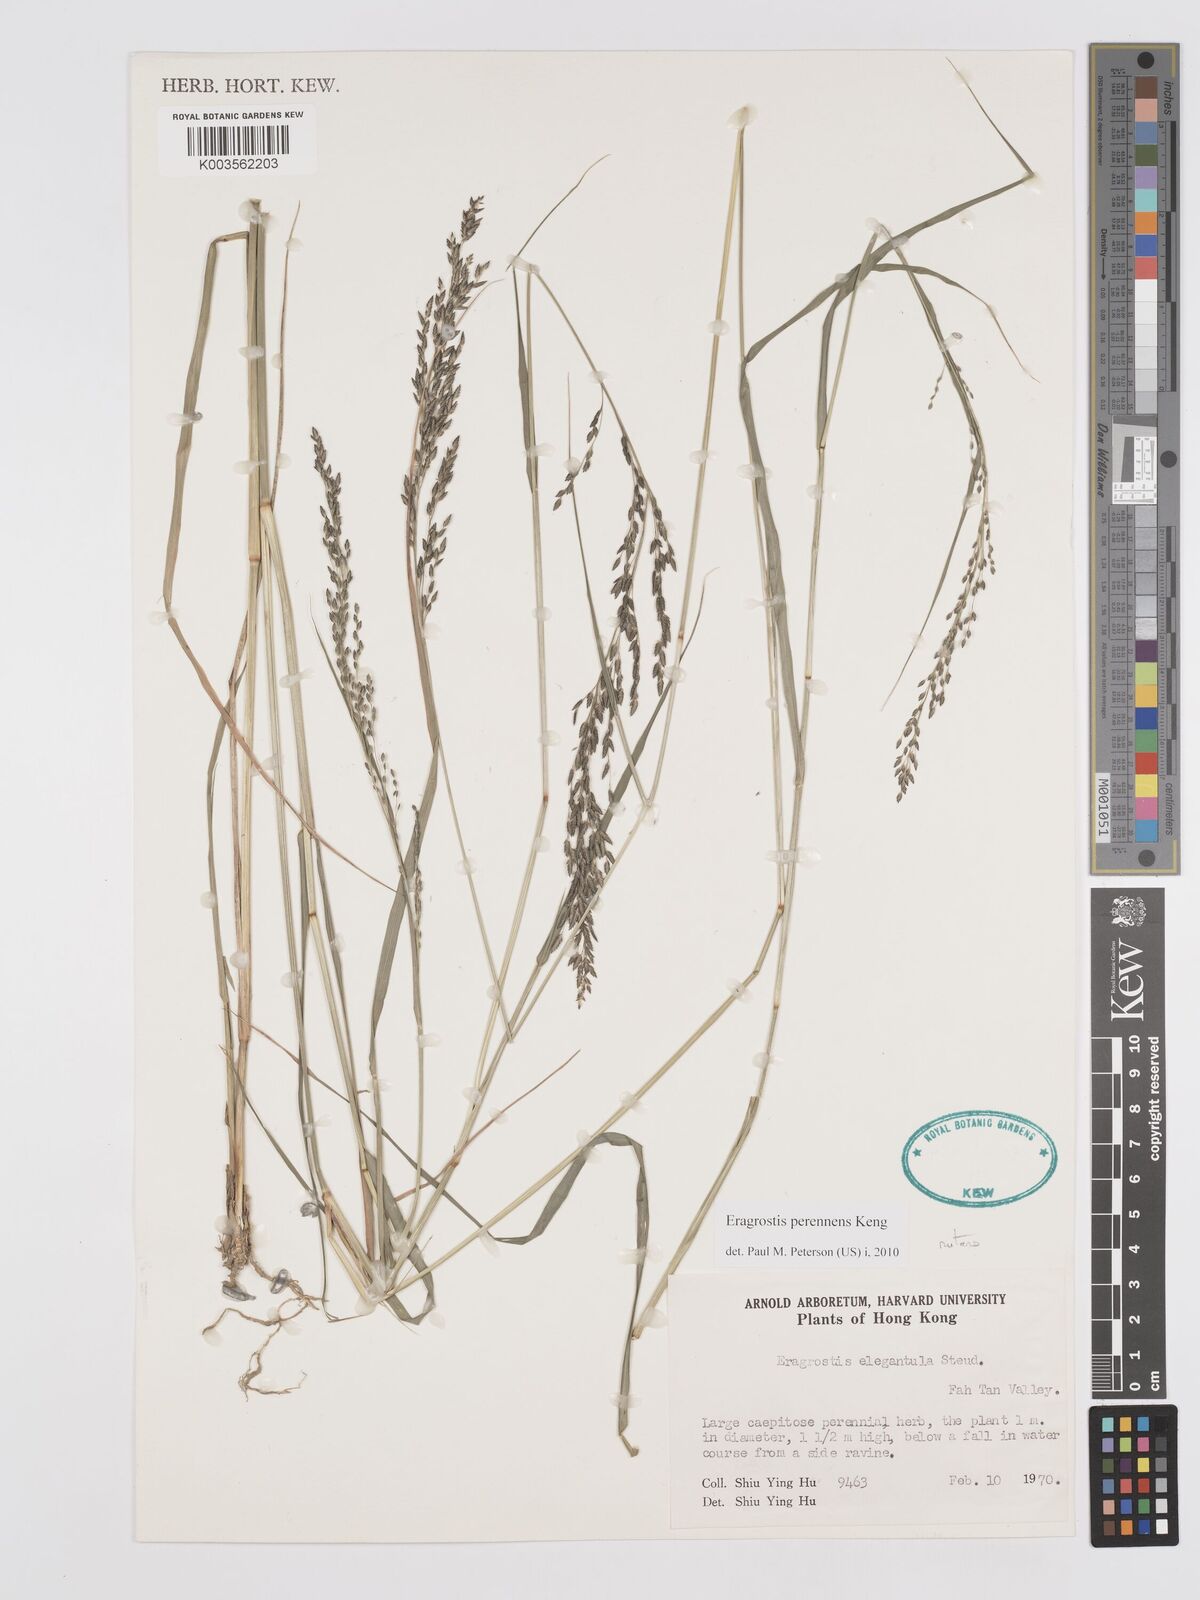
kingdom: Plantae
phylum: Tracheophyta
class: Liliopsida
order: Poales
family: Poaceae
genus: Eragrostis
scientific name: Eragrostis perennans
